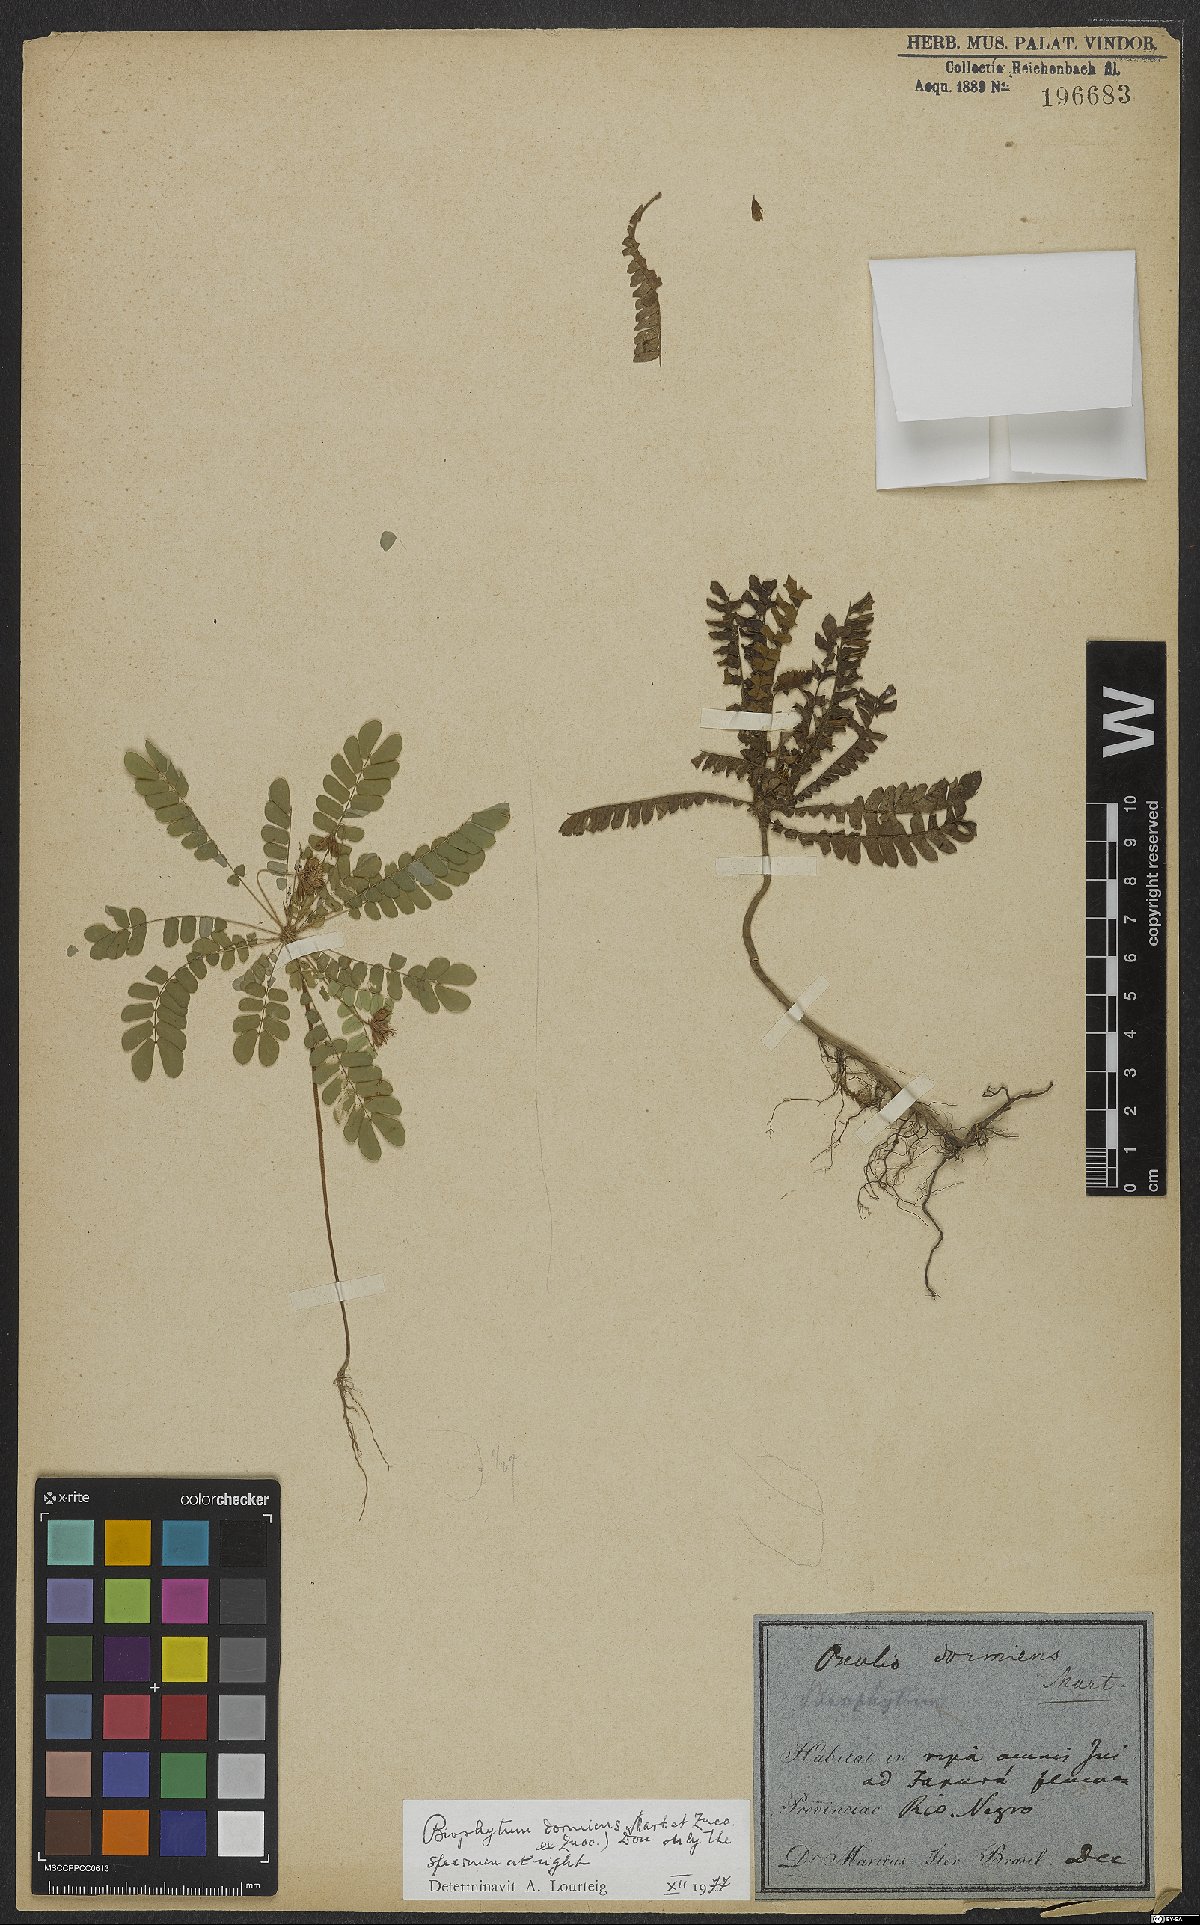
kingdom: Plantae
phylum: Tracheophyta
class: Magnoliopsida
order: Oxalidales
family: Oxalidaceae
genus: Biophytum
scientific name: Biophytum dormiens
